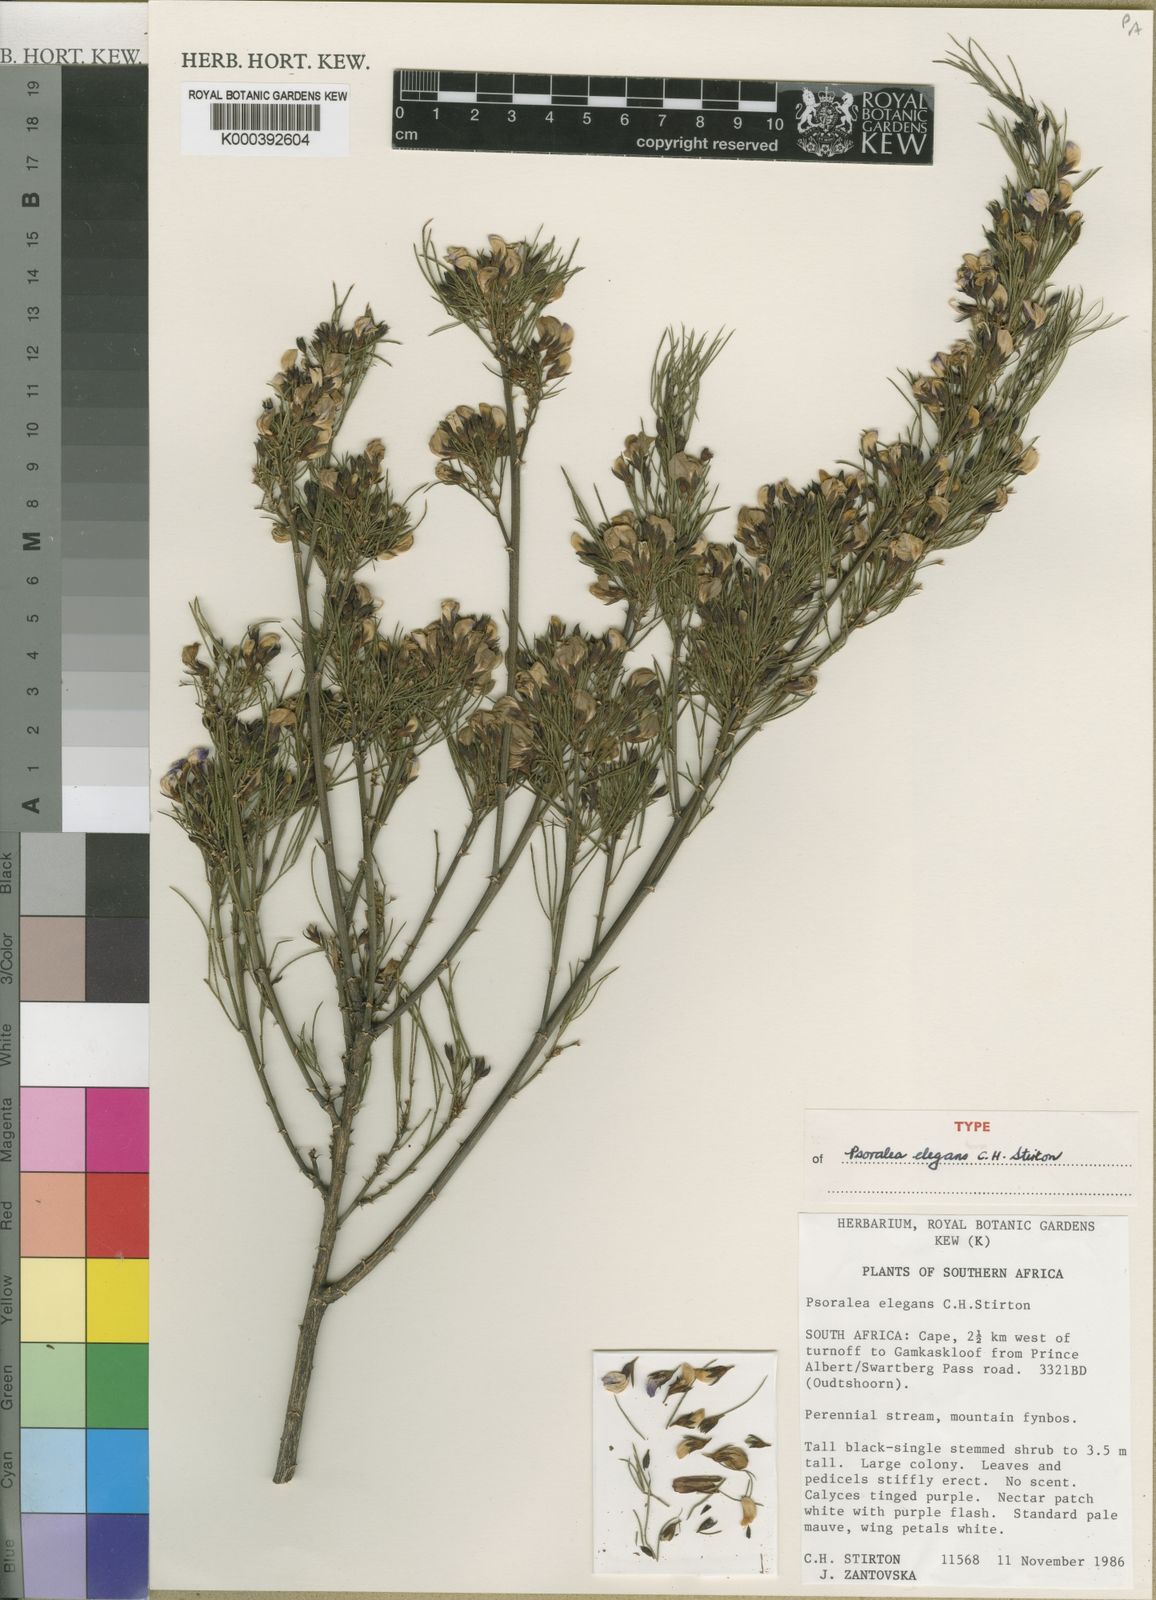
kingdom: Plantae
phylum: Tracheophyta
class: Magnoliopsida
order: Fabales
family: Fabaceae
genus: Psoralea
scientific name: Psoralea elegans
